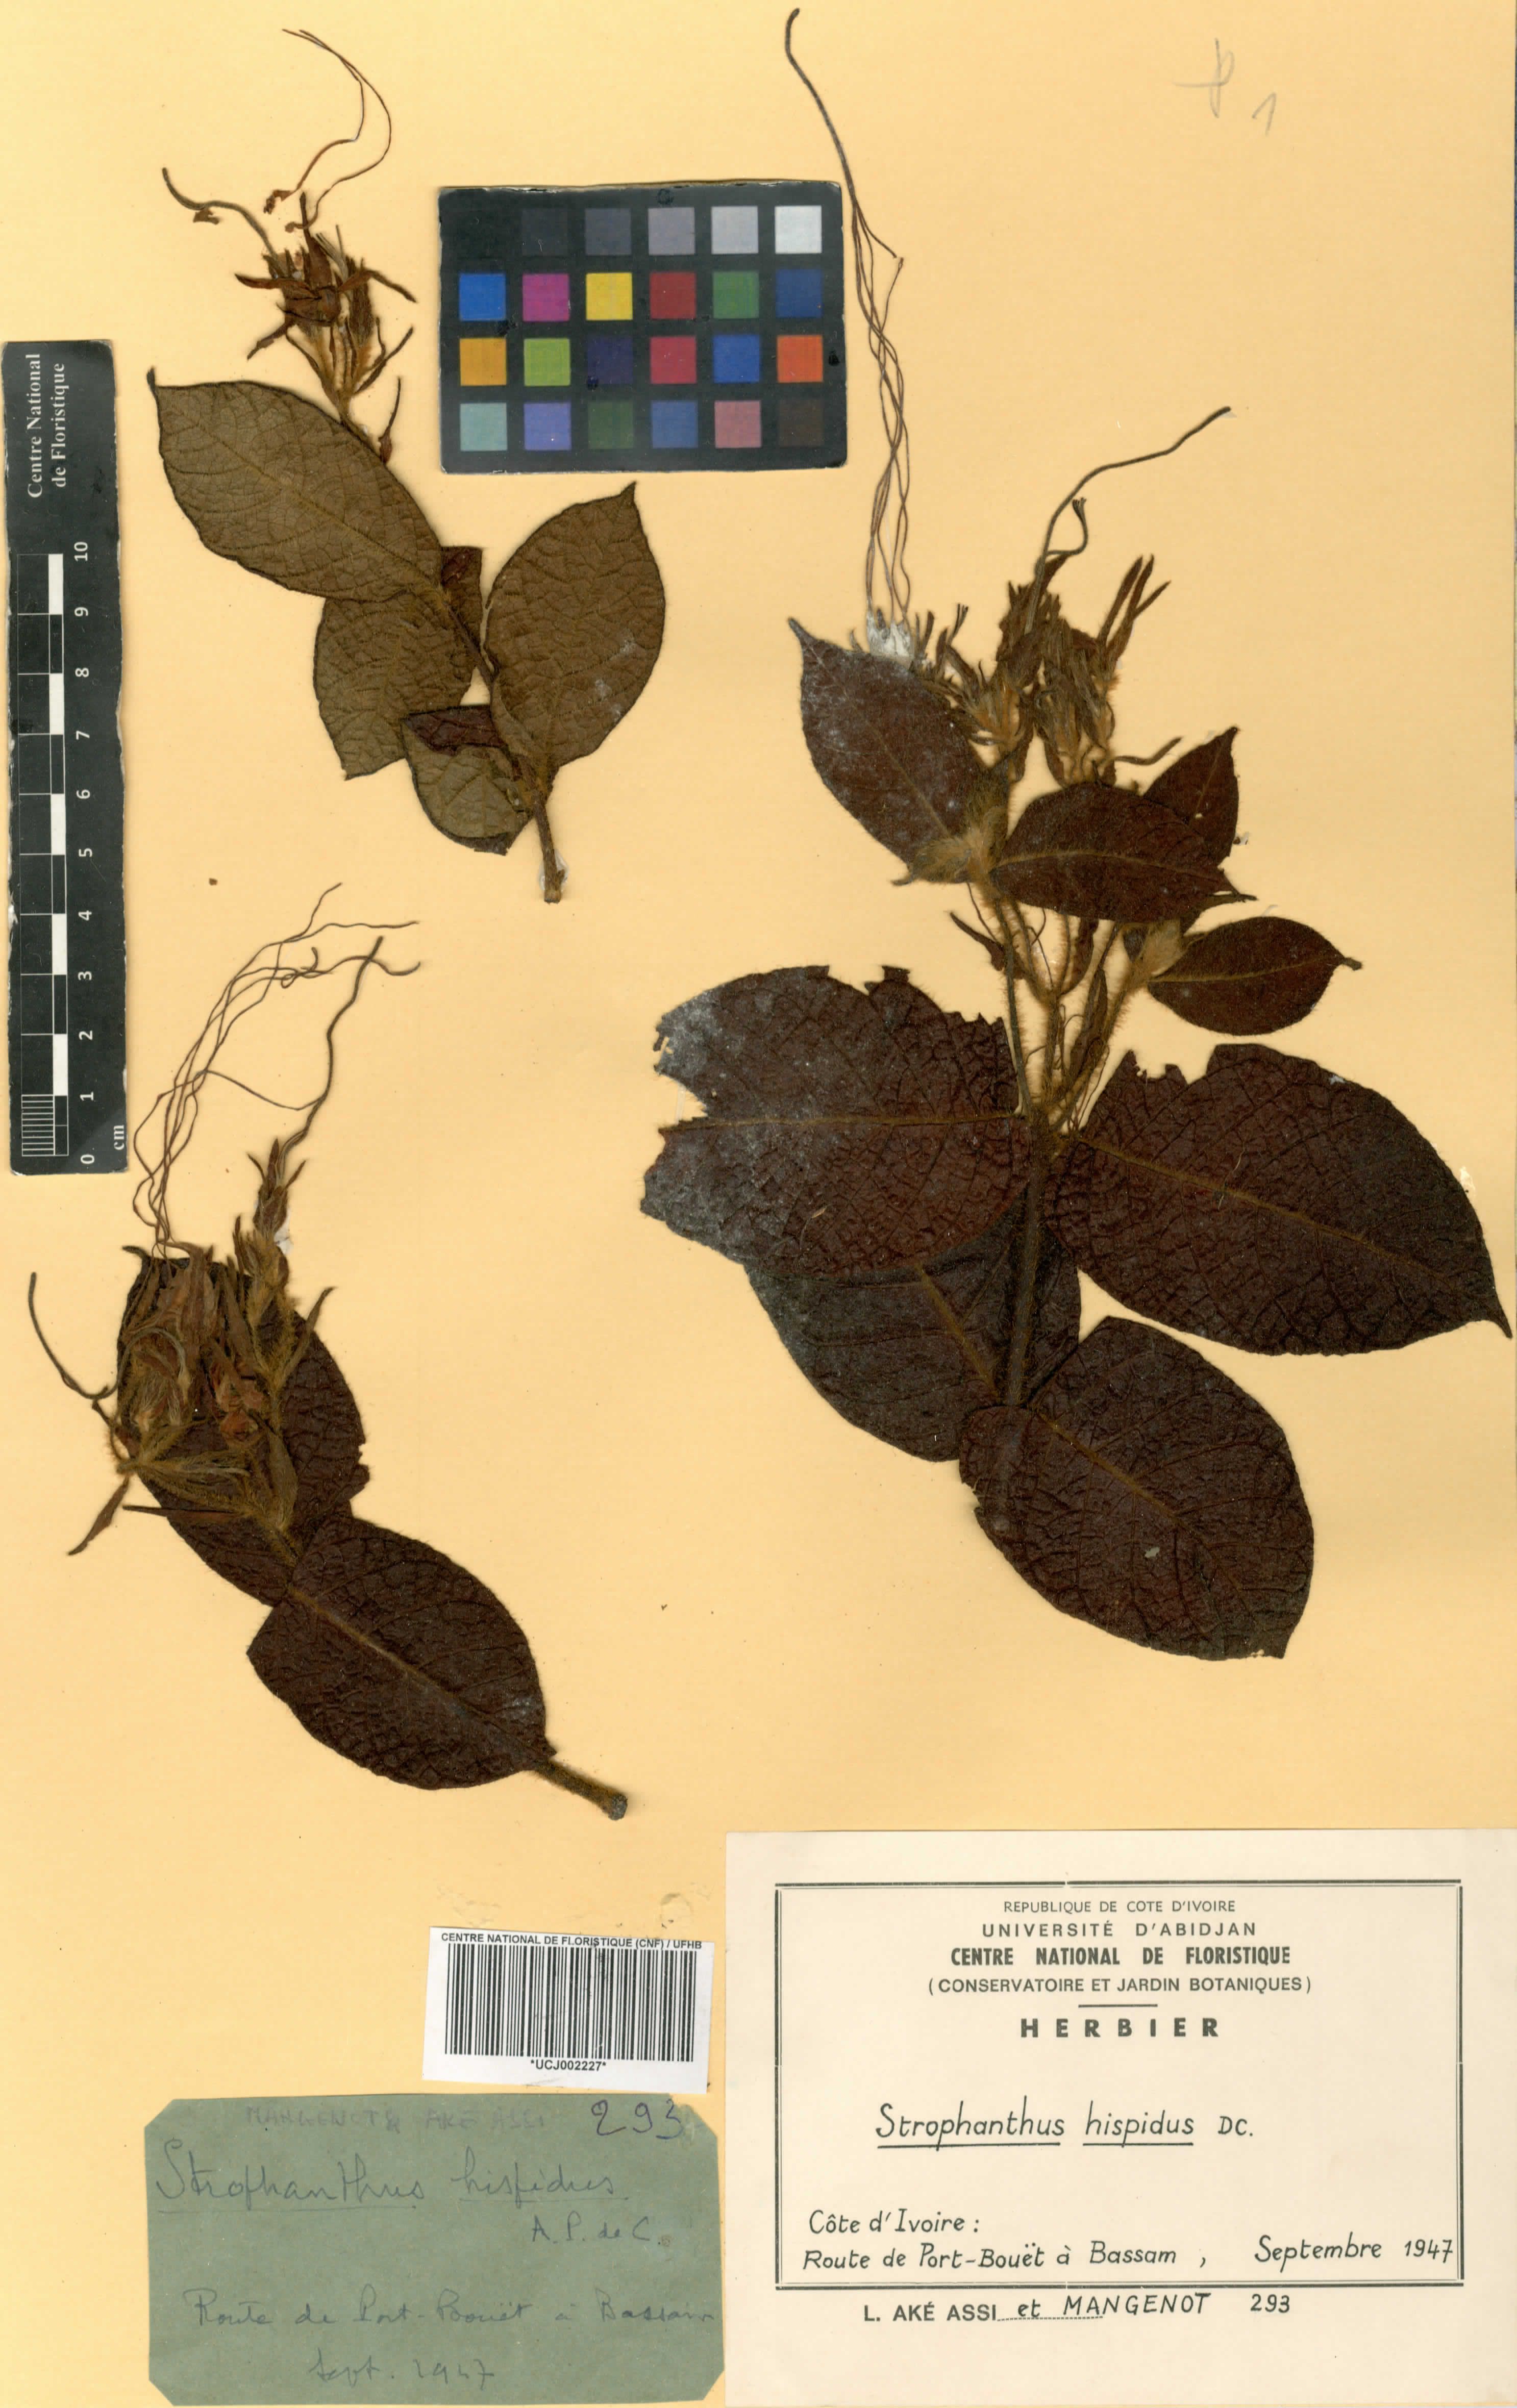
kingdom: Plantae
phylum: Tracheophyta
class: Magnoliopsida
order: Gentianales
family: Apocynaceae
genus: Strophanthus
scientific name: Strophanthus hispidus
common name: Hairy strophanthus
